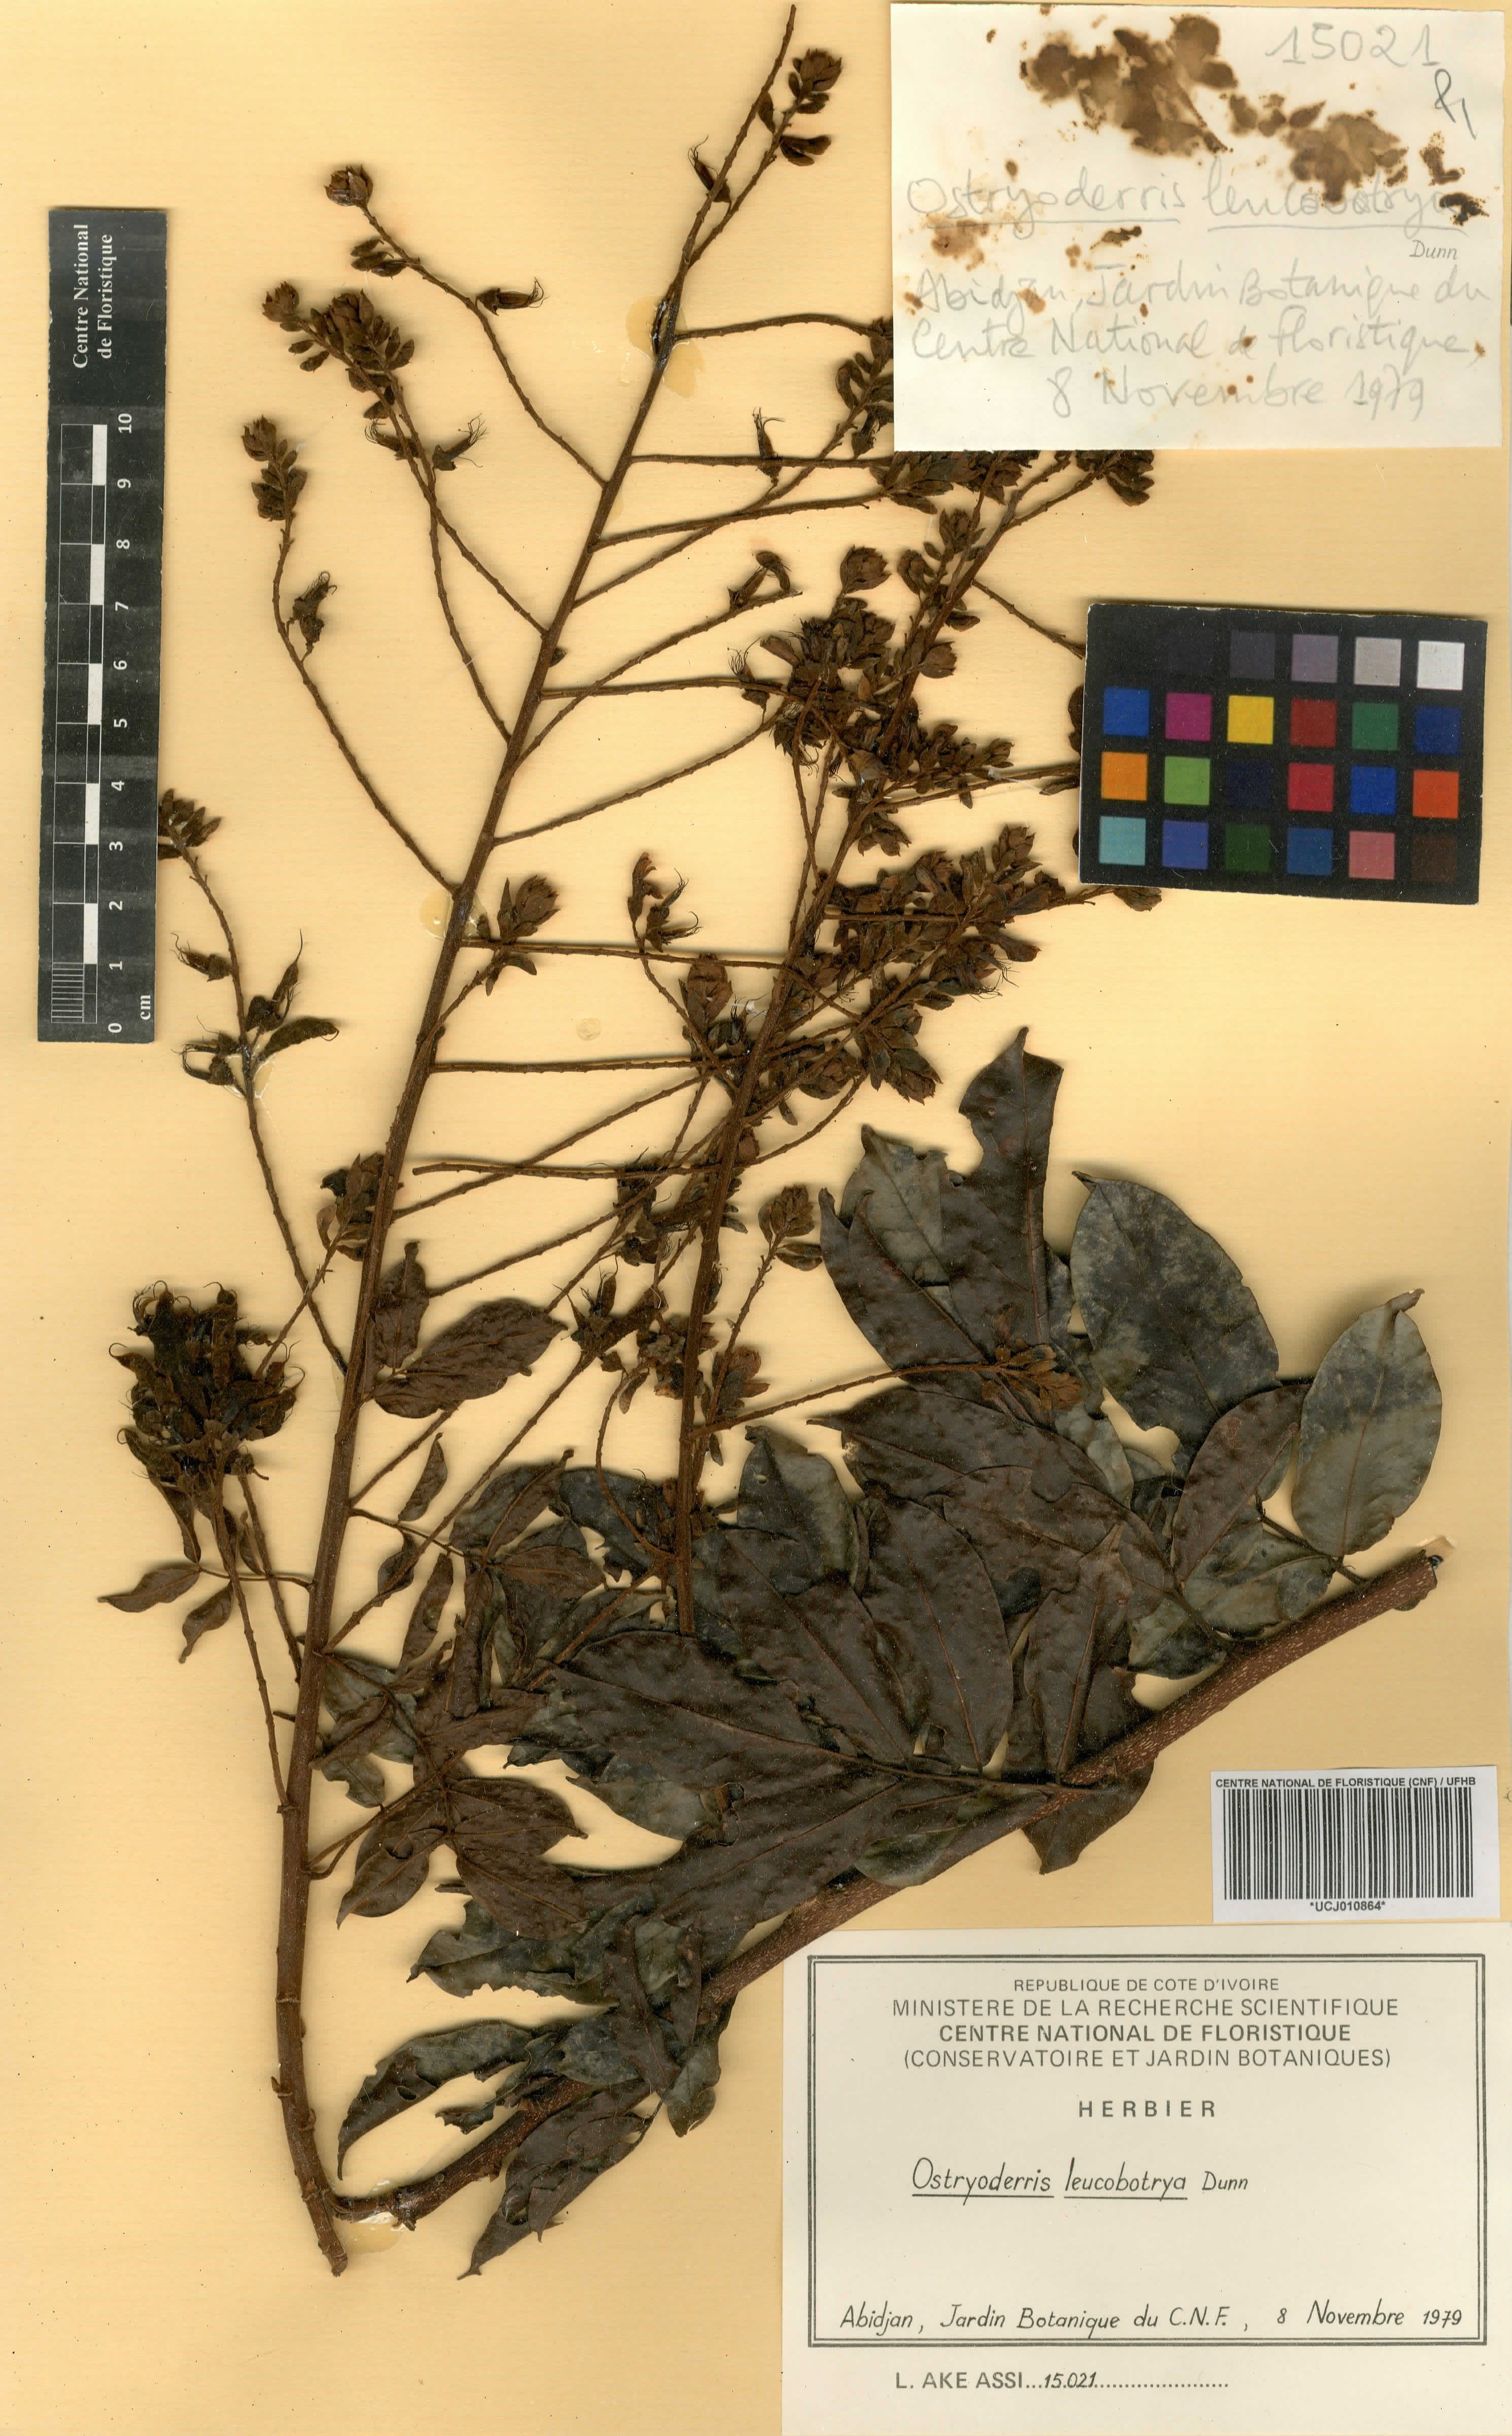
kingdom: Plantae
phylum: Tracheophyta
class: Magnoliopsida
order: Fabales
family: Fabaceae
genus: Aganope
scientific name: Aganope leucobotrya
